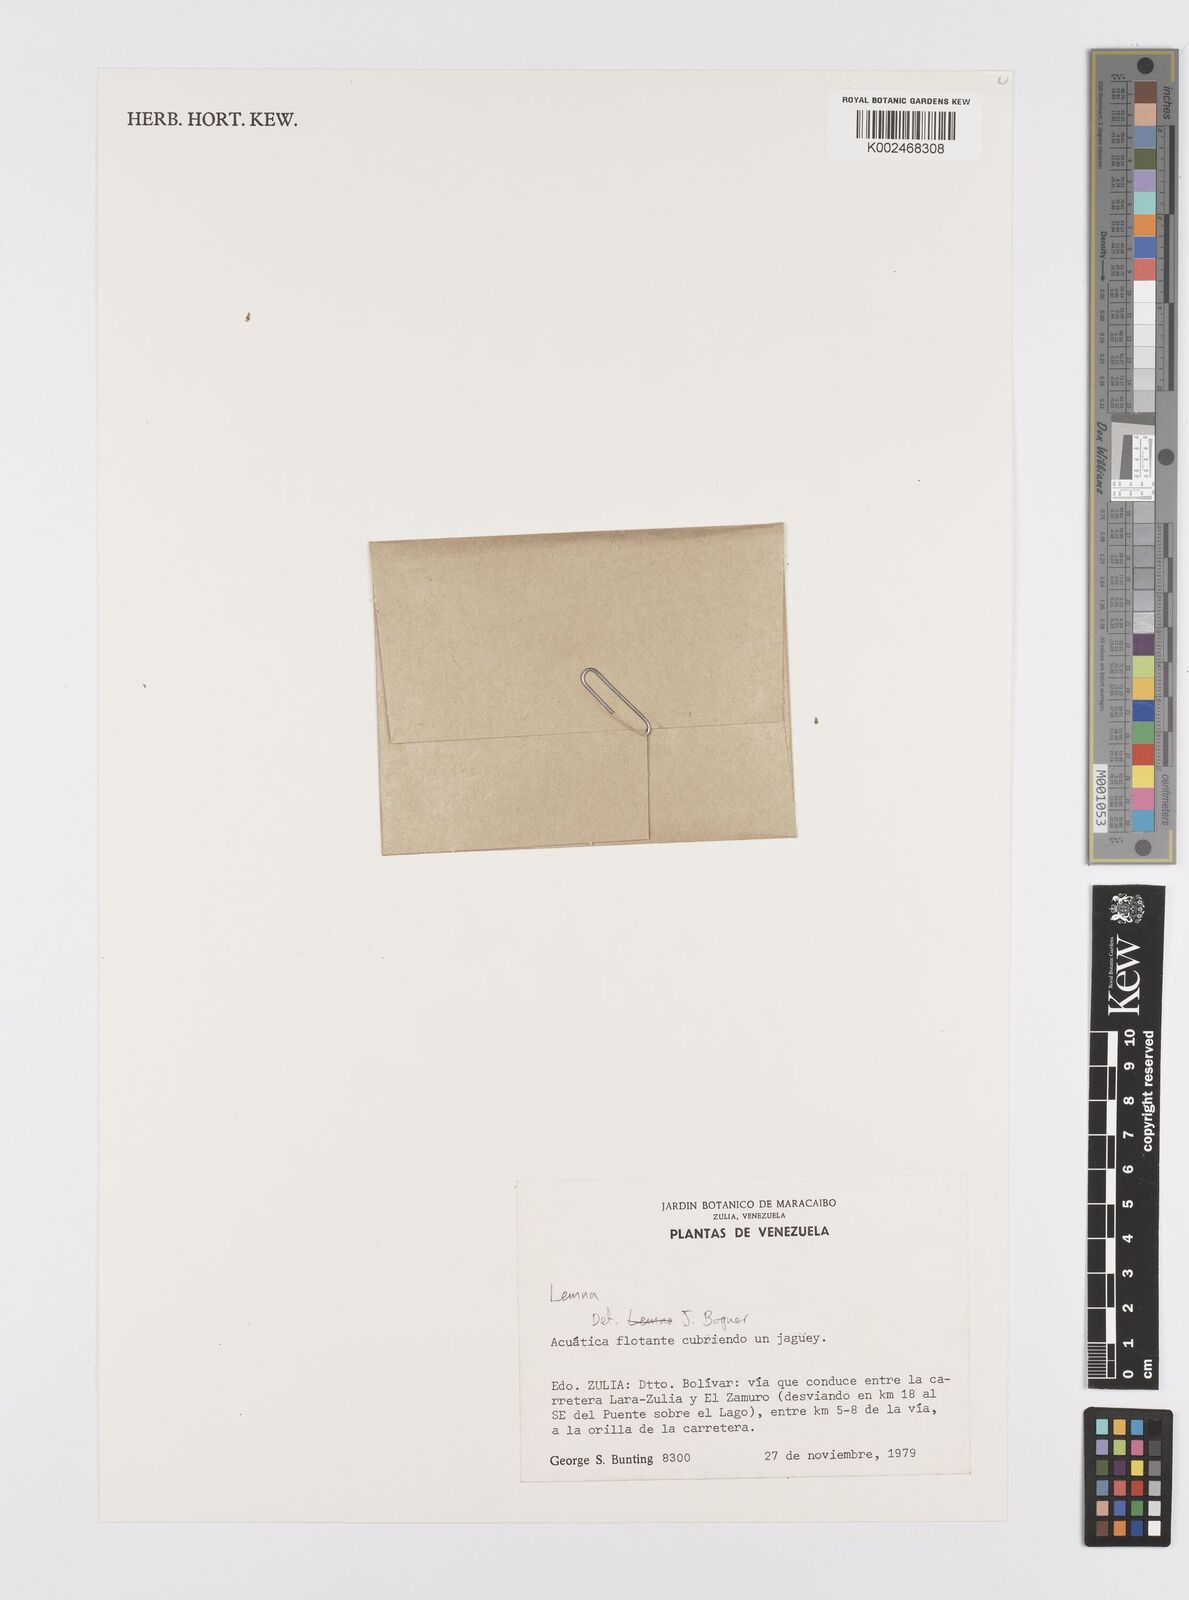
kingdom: Plantae
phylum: Tracheophyta
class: Liliopsida
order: Alismatales
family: Araceae
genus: Lemna
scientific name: Lemna
